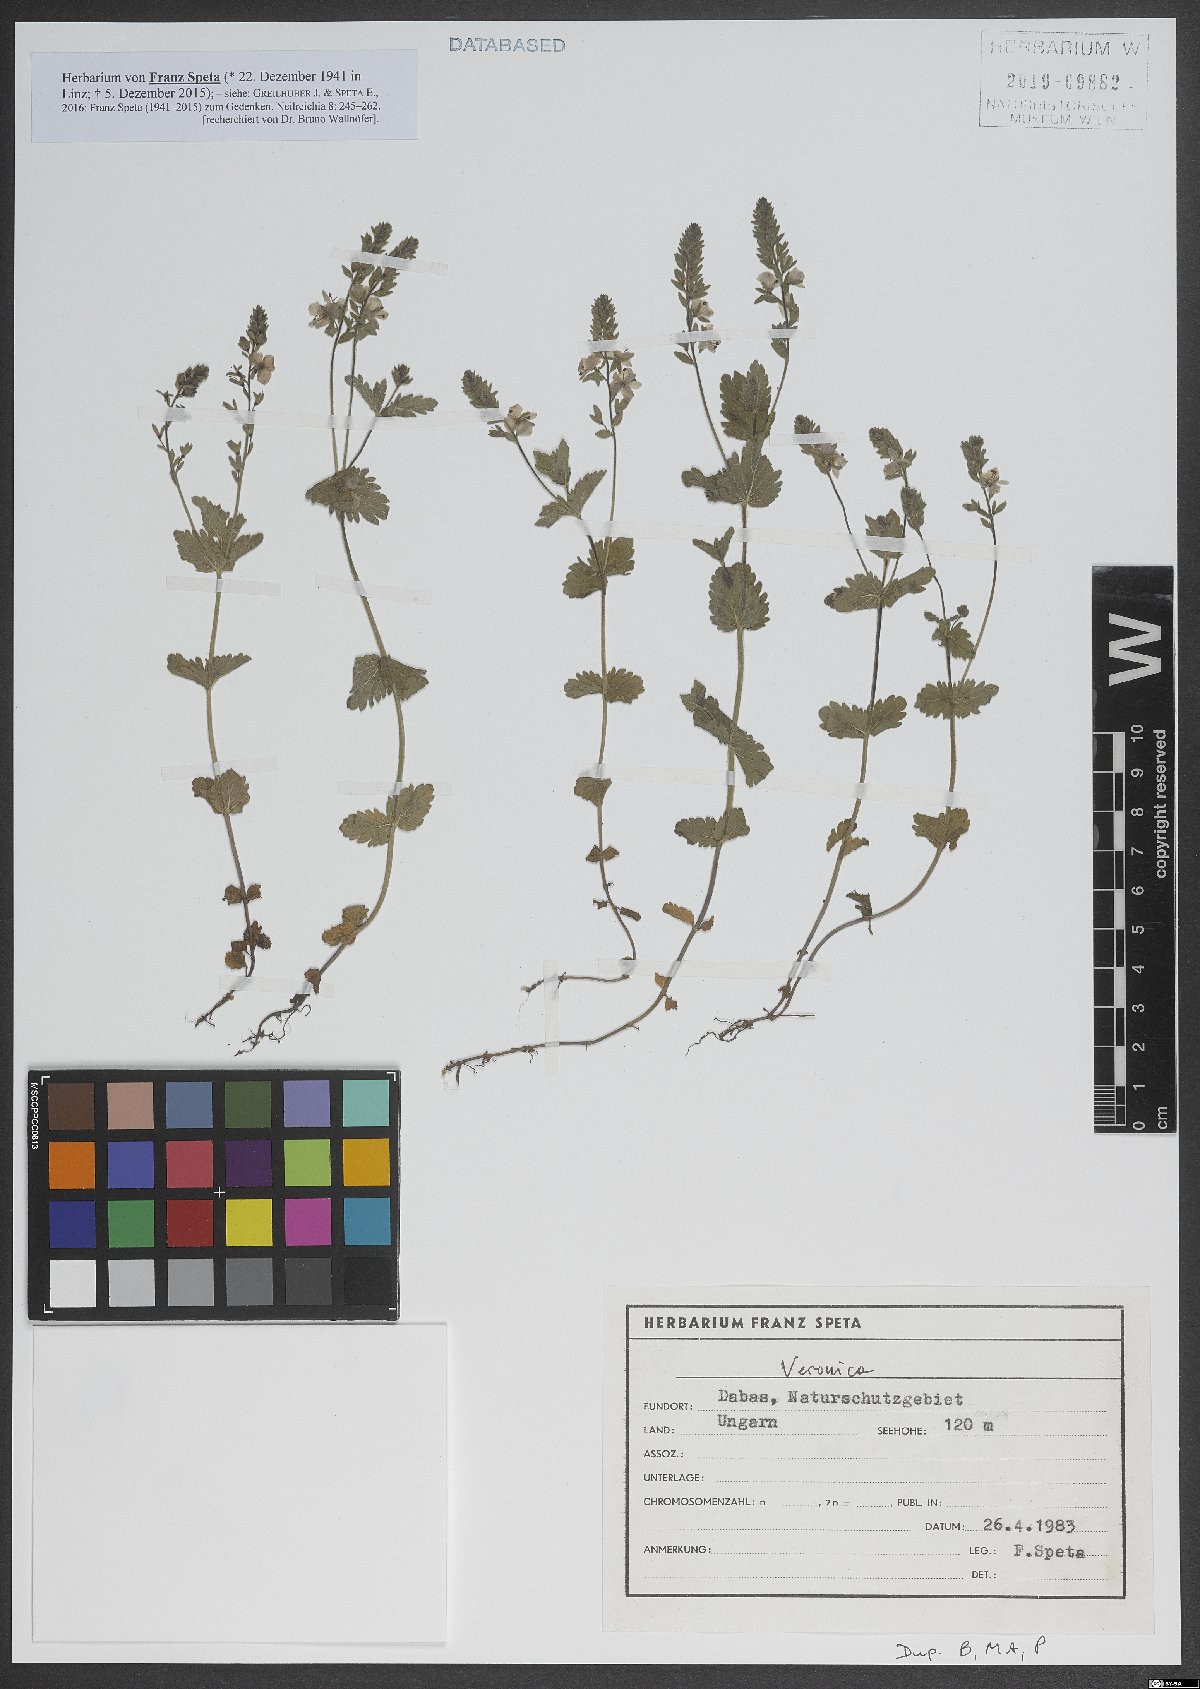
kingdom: Plantae
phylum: Tracheophyta
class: Magnoliopsida
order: Lamiales
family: Plantaginaceae
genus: Veronica
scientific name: Veronica
